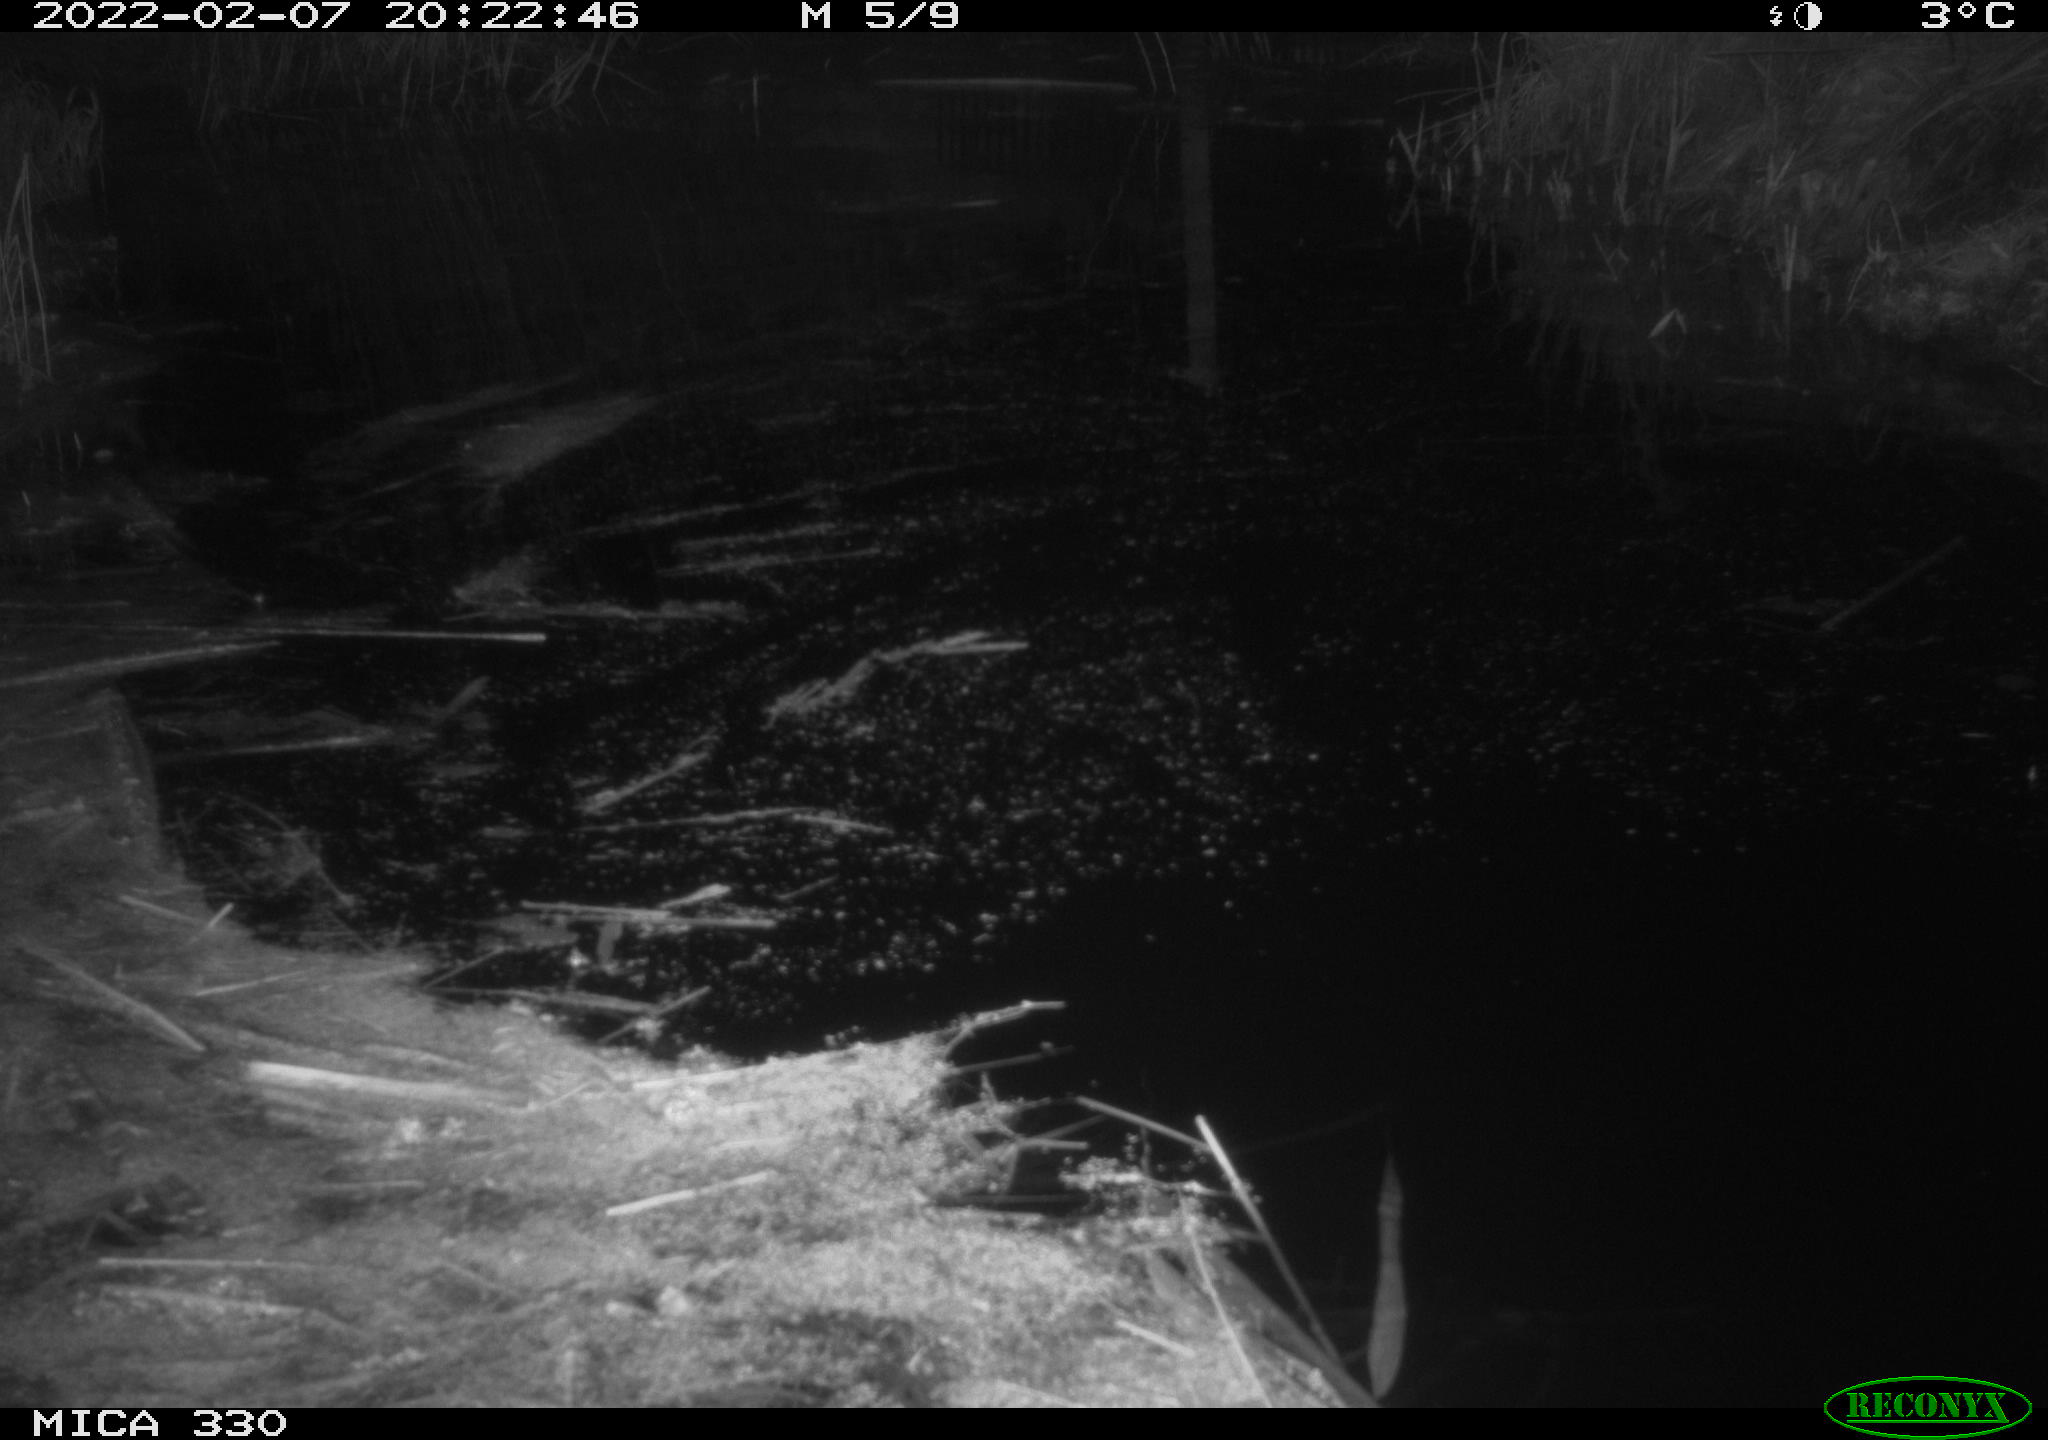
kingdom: Animalia
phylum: Chordata
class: Aves
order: Gruiformes
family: Rallidae
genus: Gallinula
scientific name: Gallinula chloropus
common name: Common moorhen
